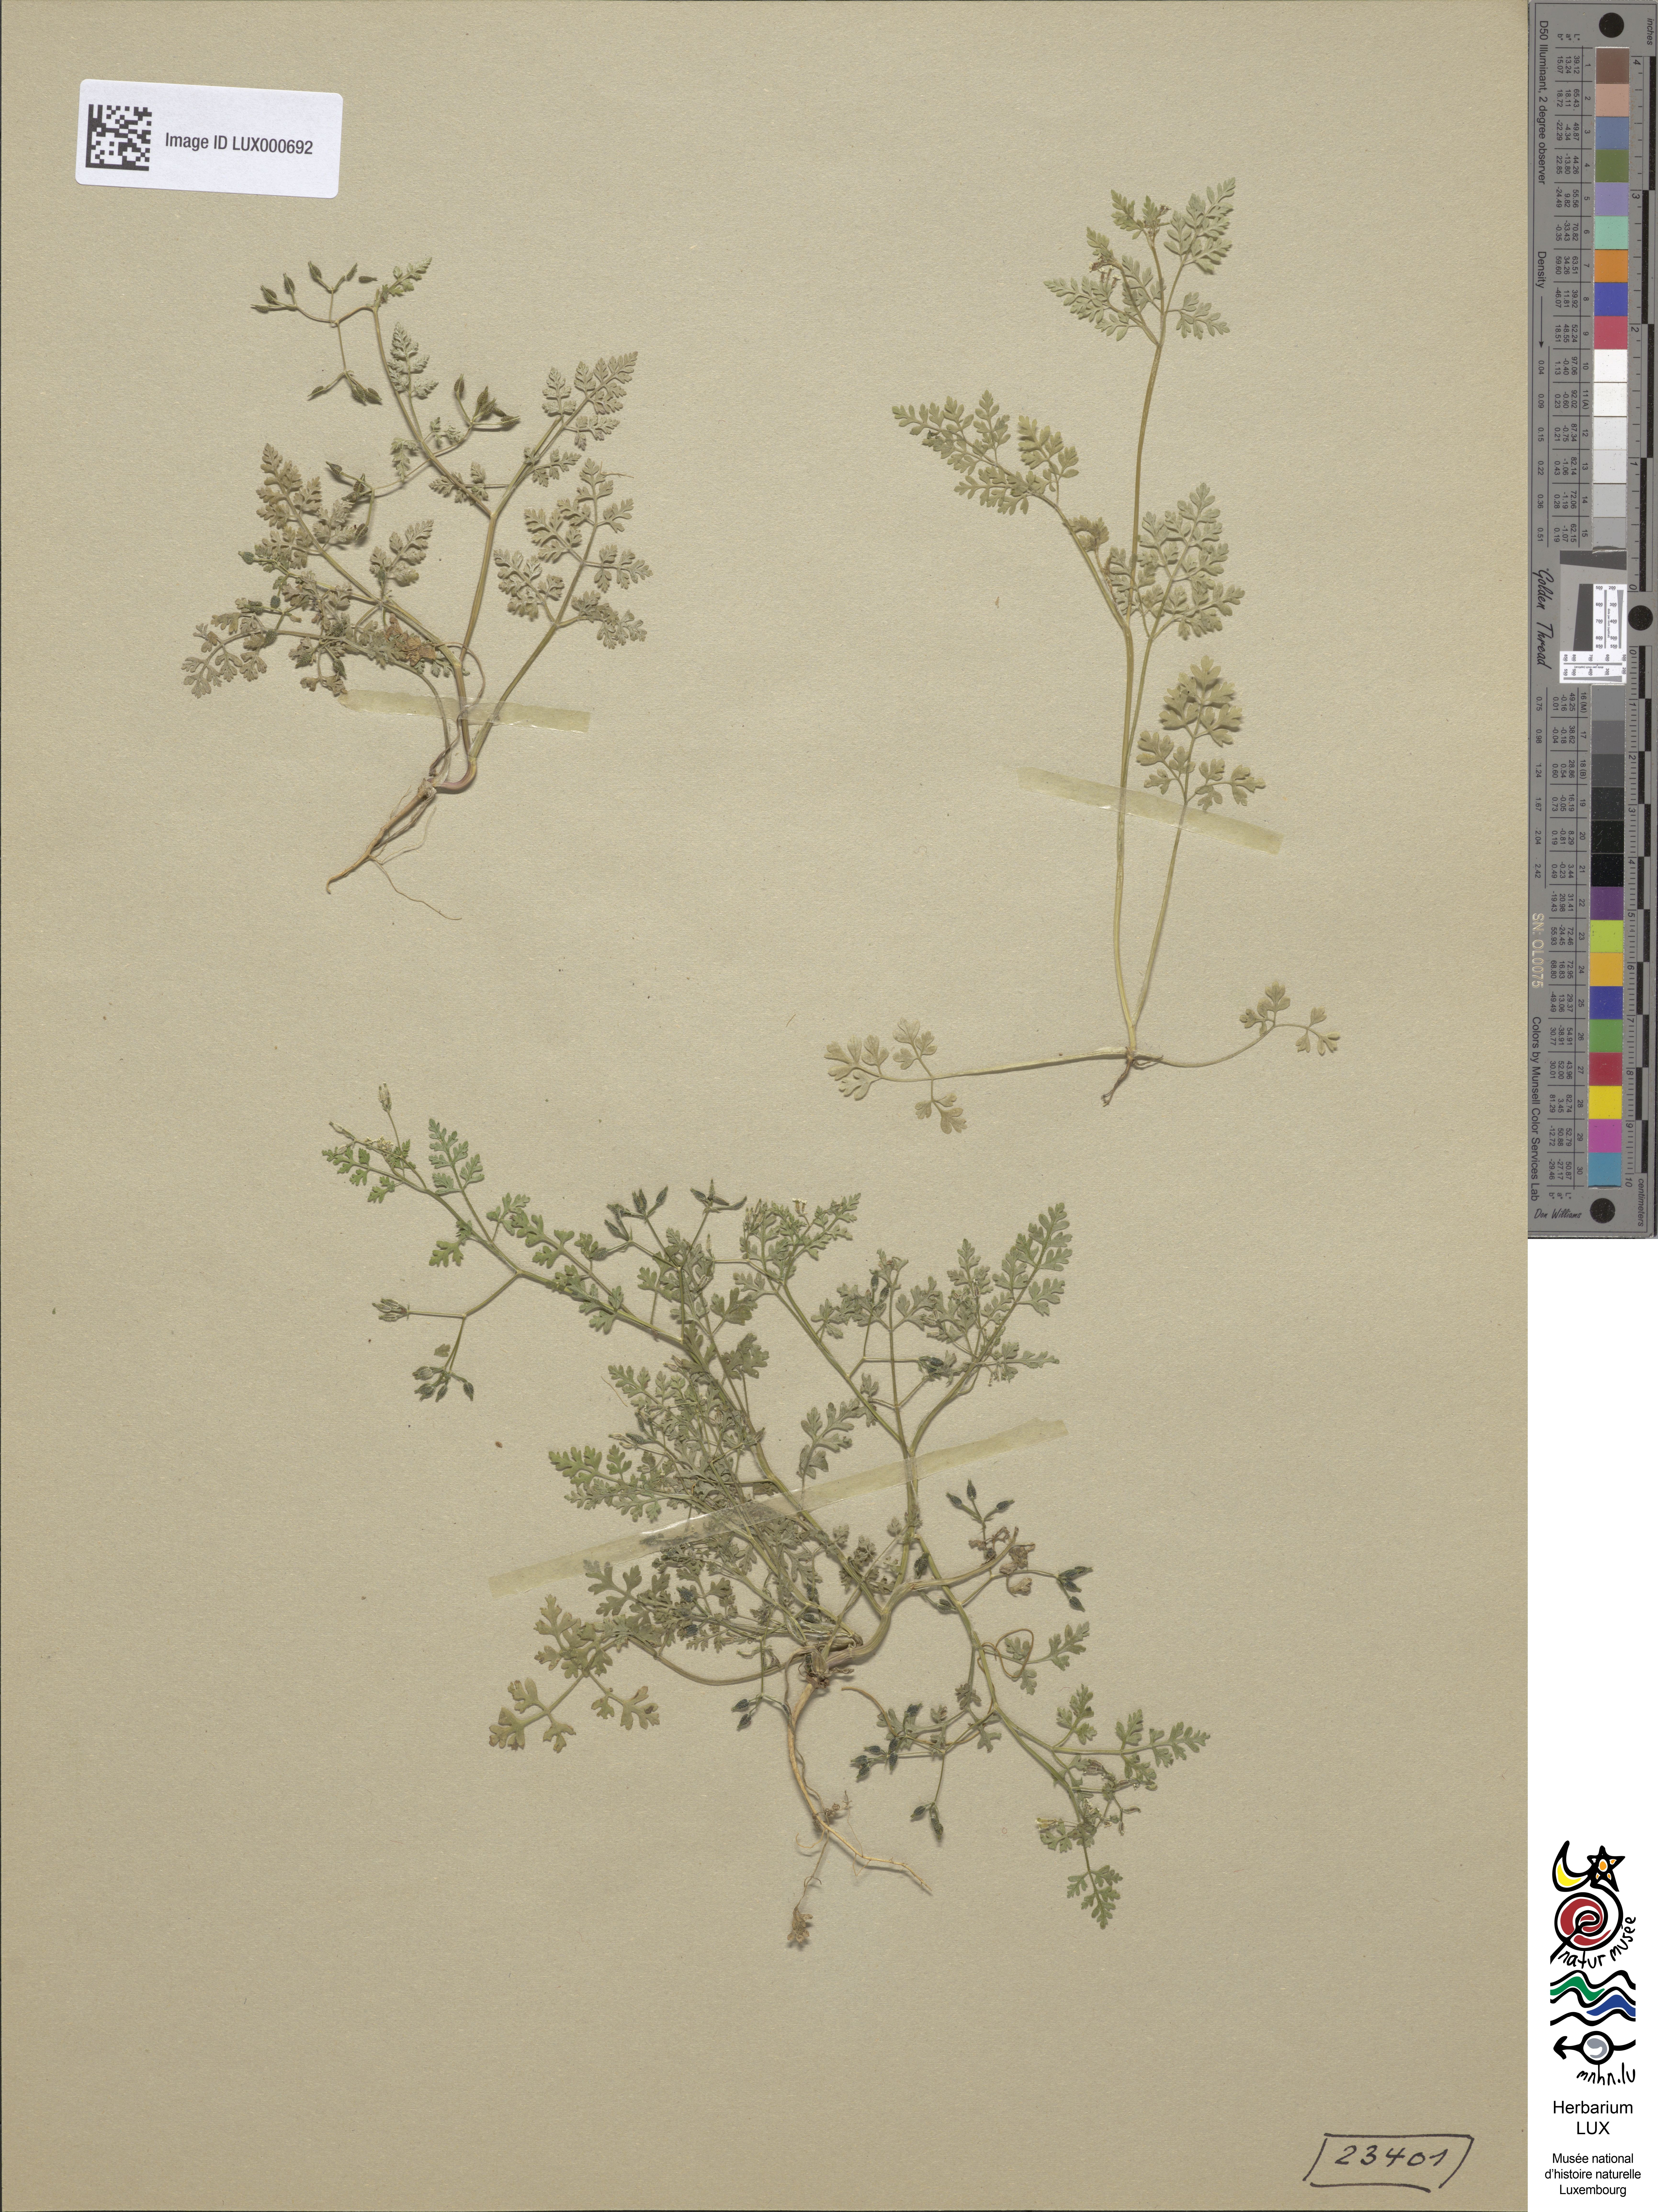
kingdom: Plantae
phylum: Tracheophyta
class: Magnoliopsida
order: Apiales
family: Apiaceae
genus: Anthriscus
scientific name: Anthriscus caucalis
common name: Bur chervil
